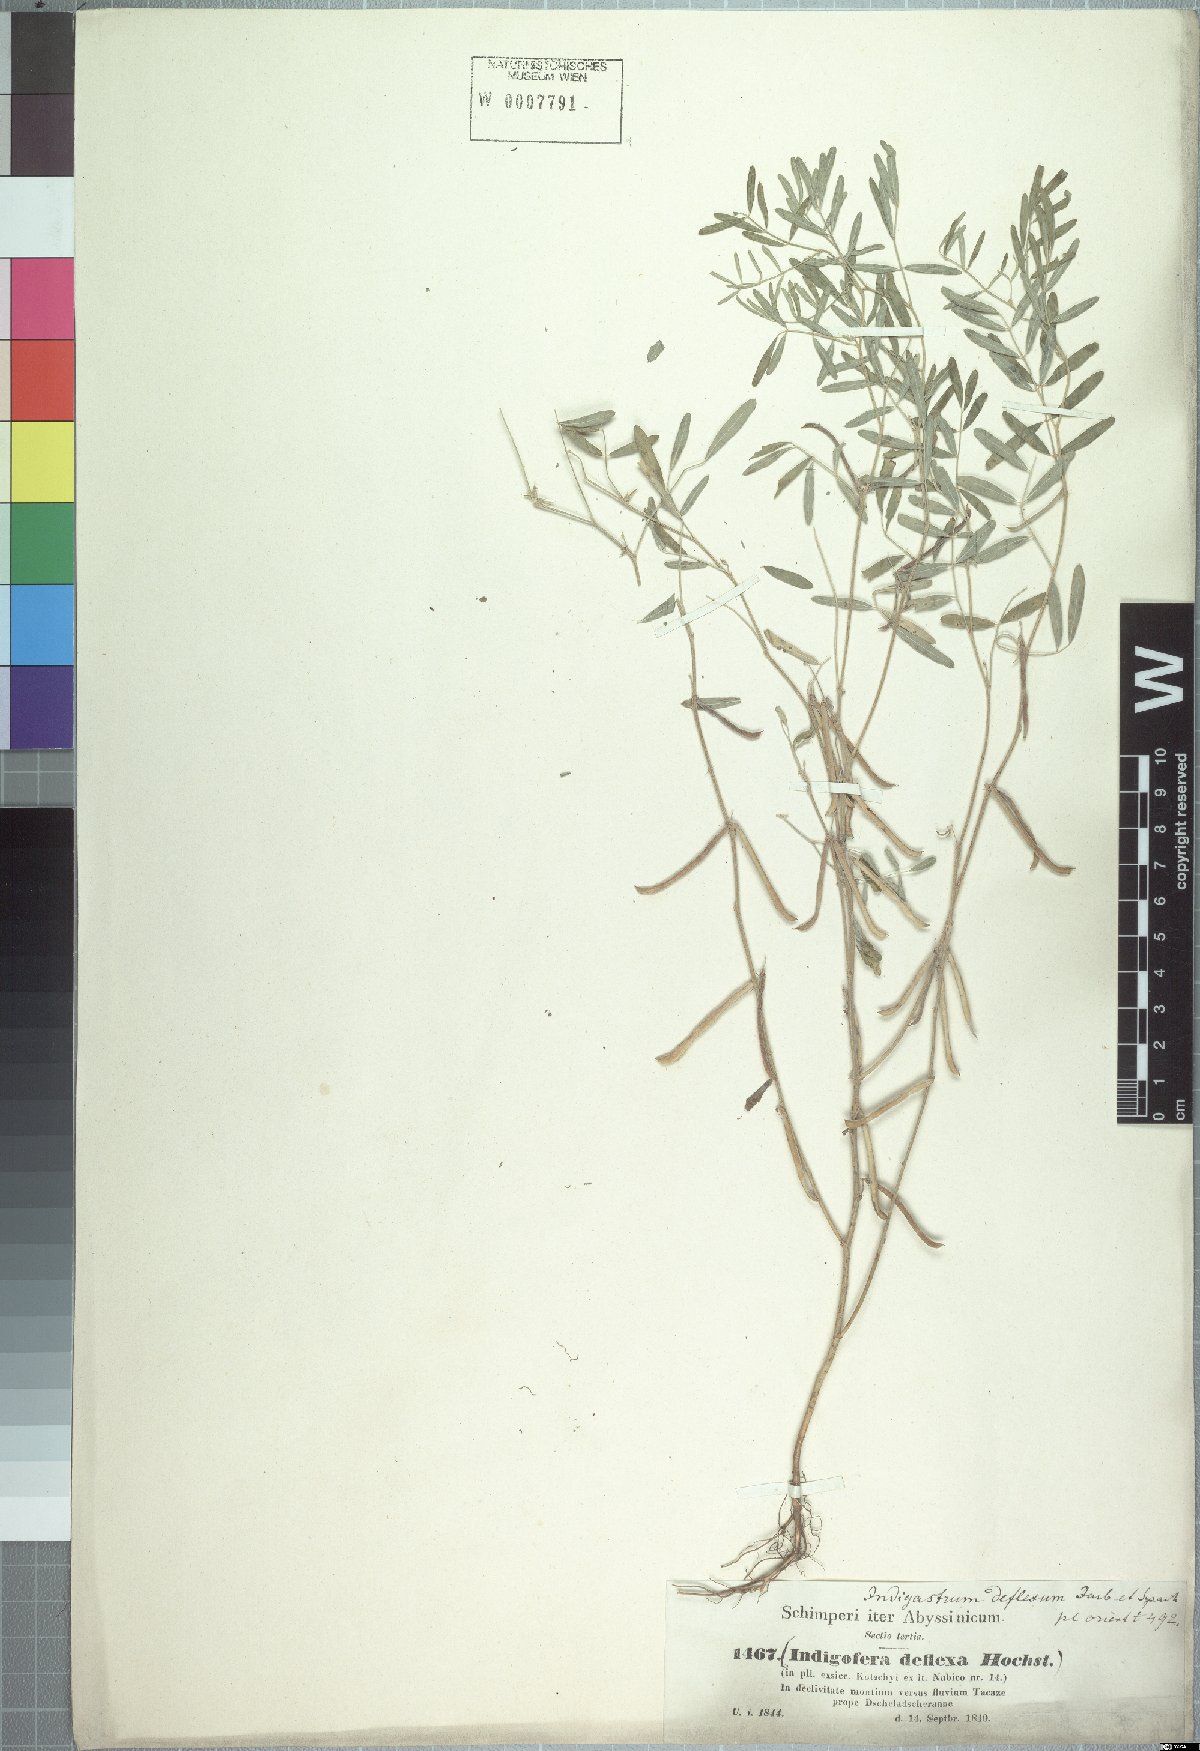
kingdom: Plantae
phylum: Tracheophyta
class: Magnoliopsida
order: Fabales
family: Fabaceae
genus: Indigastrum
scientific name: Indigastrum parviflorum
